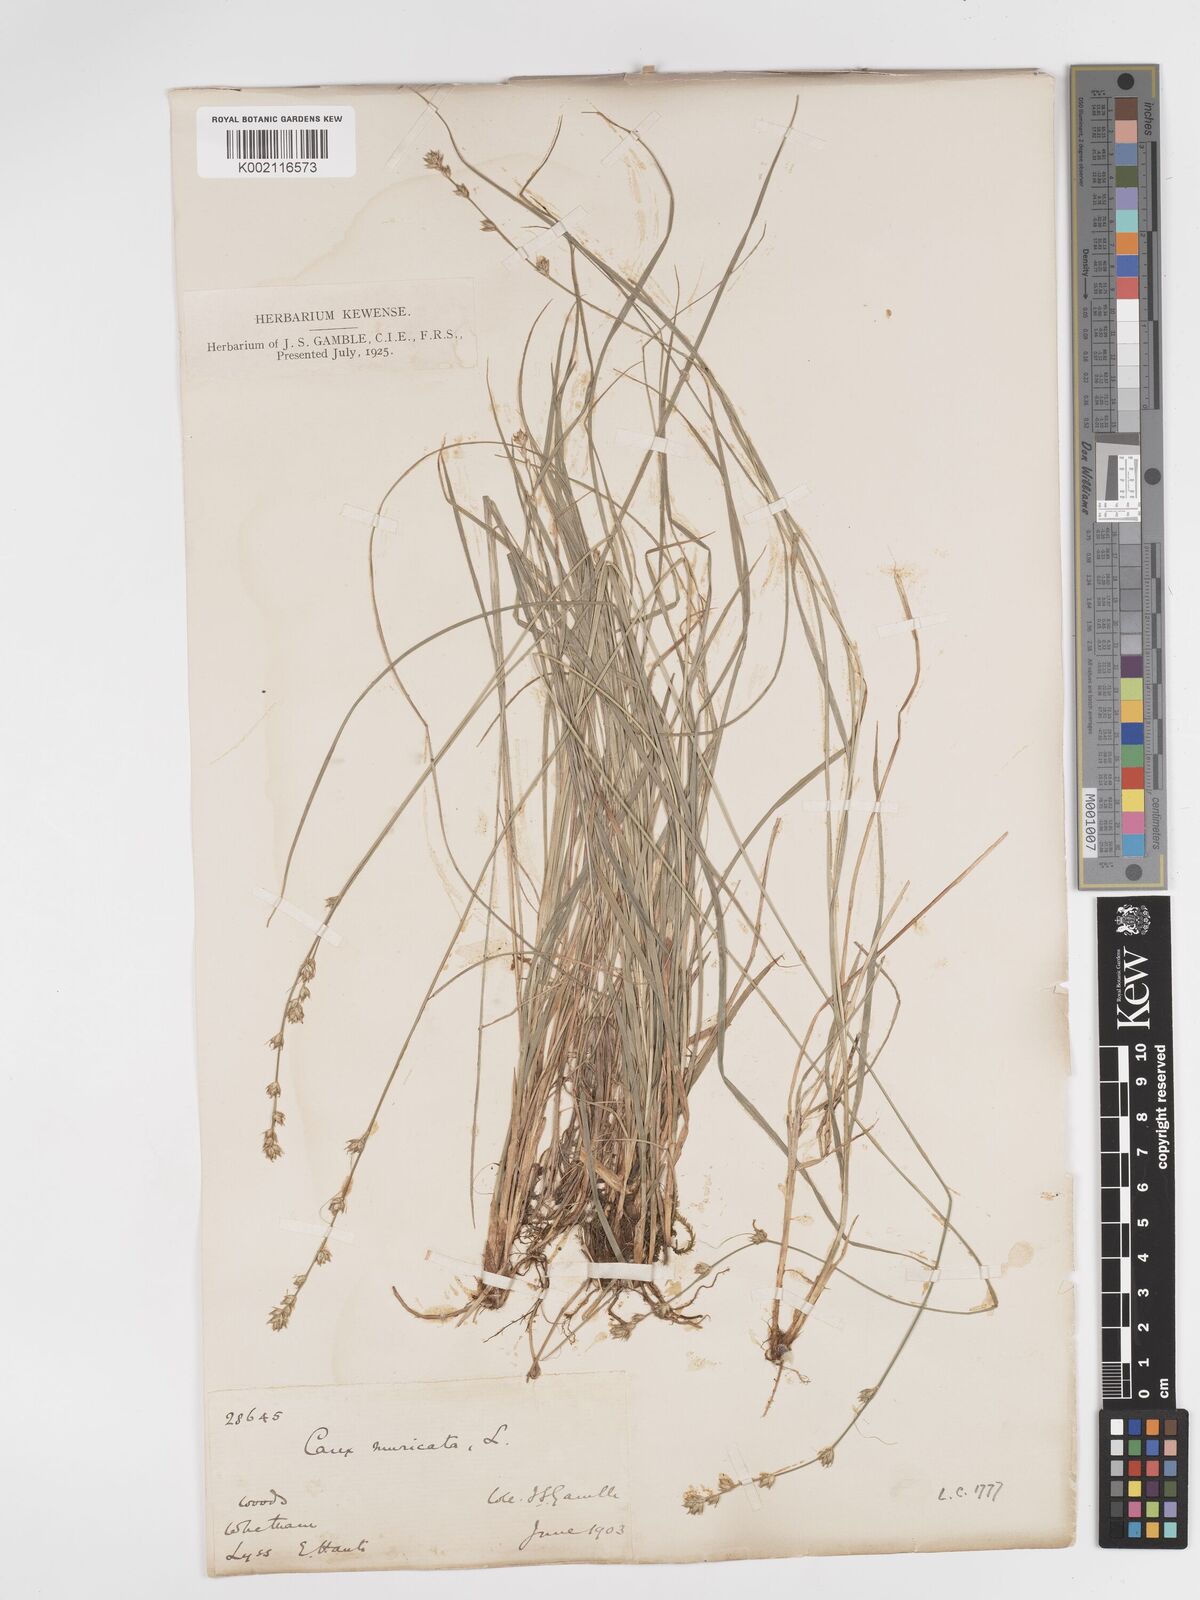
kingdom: Plantae
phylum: Tracheophyta
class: Liliopsida
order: Poales
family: Cyperaceae
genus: Carex
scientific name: Carex divulsa
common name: Grassland sedge
